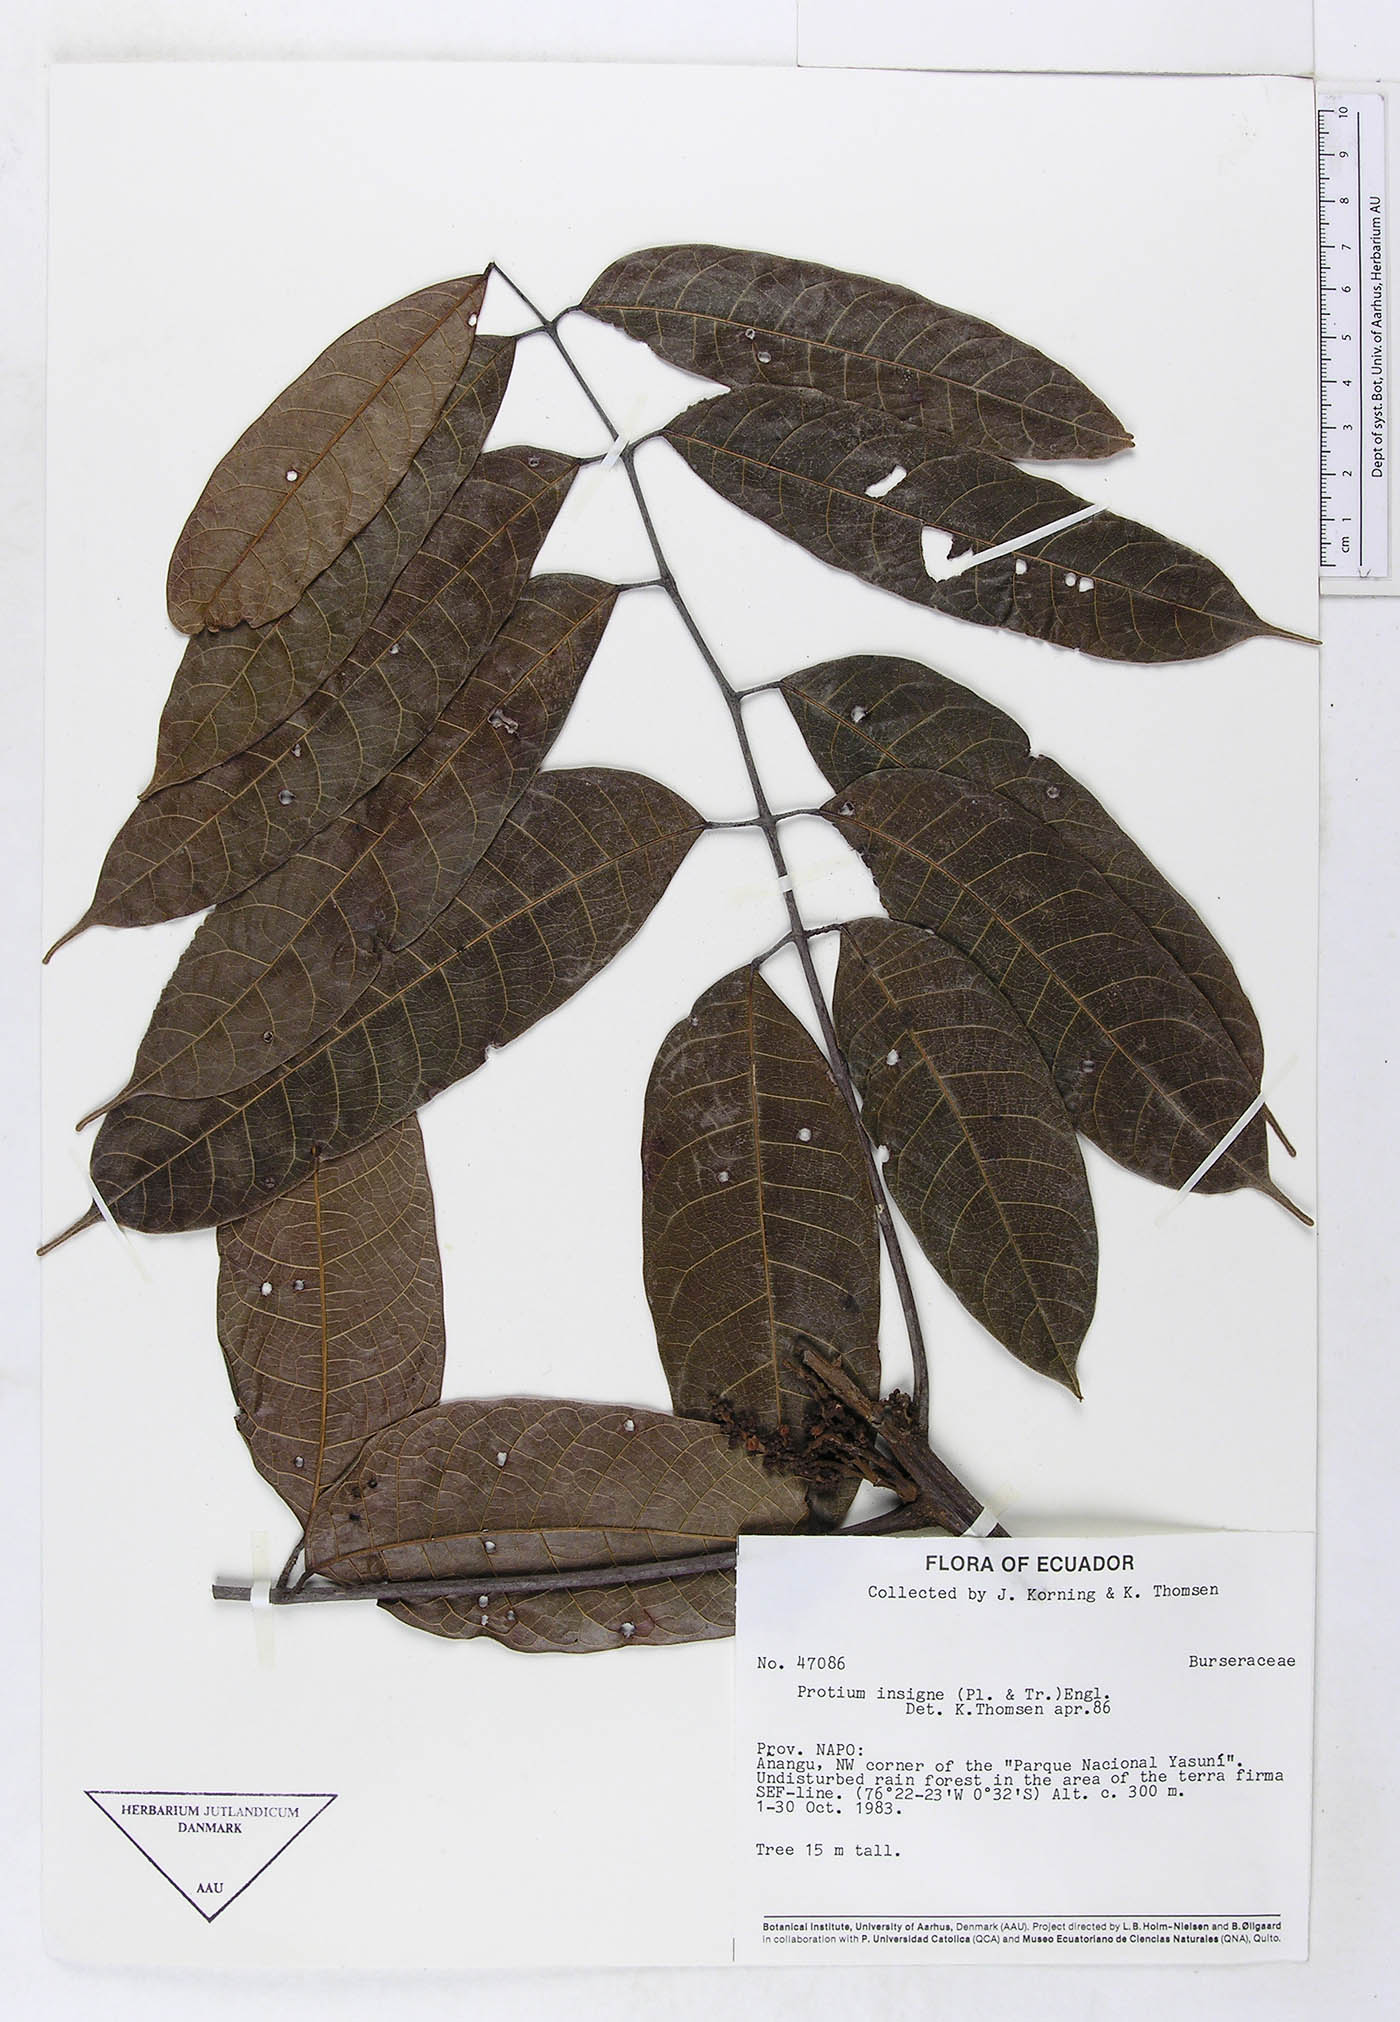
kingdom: Plantae
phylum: Tracheophyta
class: Magnoliopsida
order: Sapindales
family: Burseraceae
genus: Protium
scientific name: Protium sagotianum
